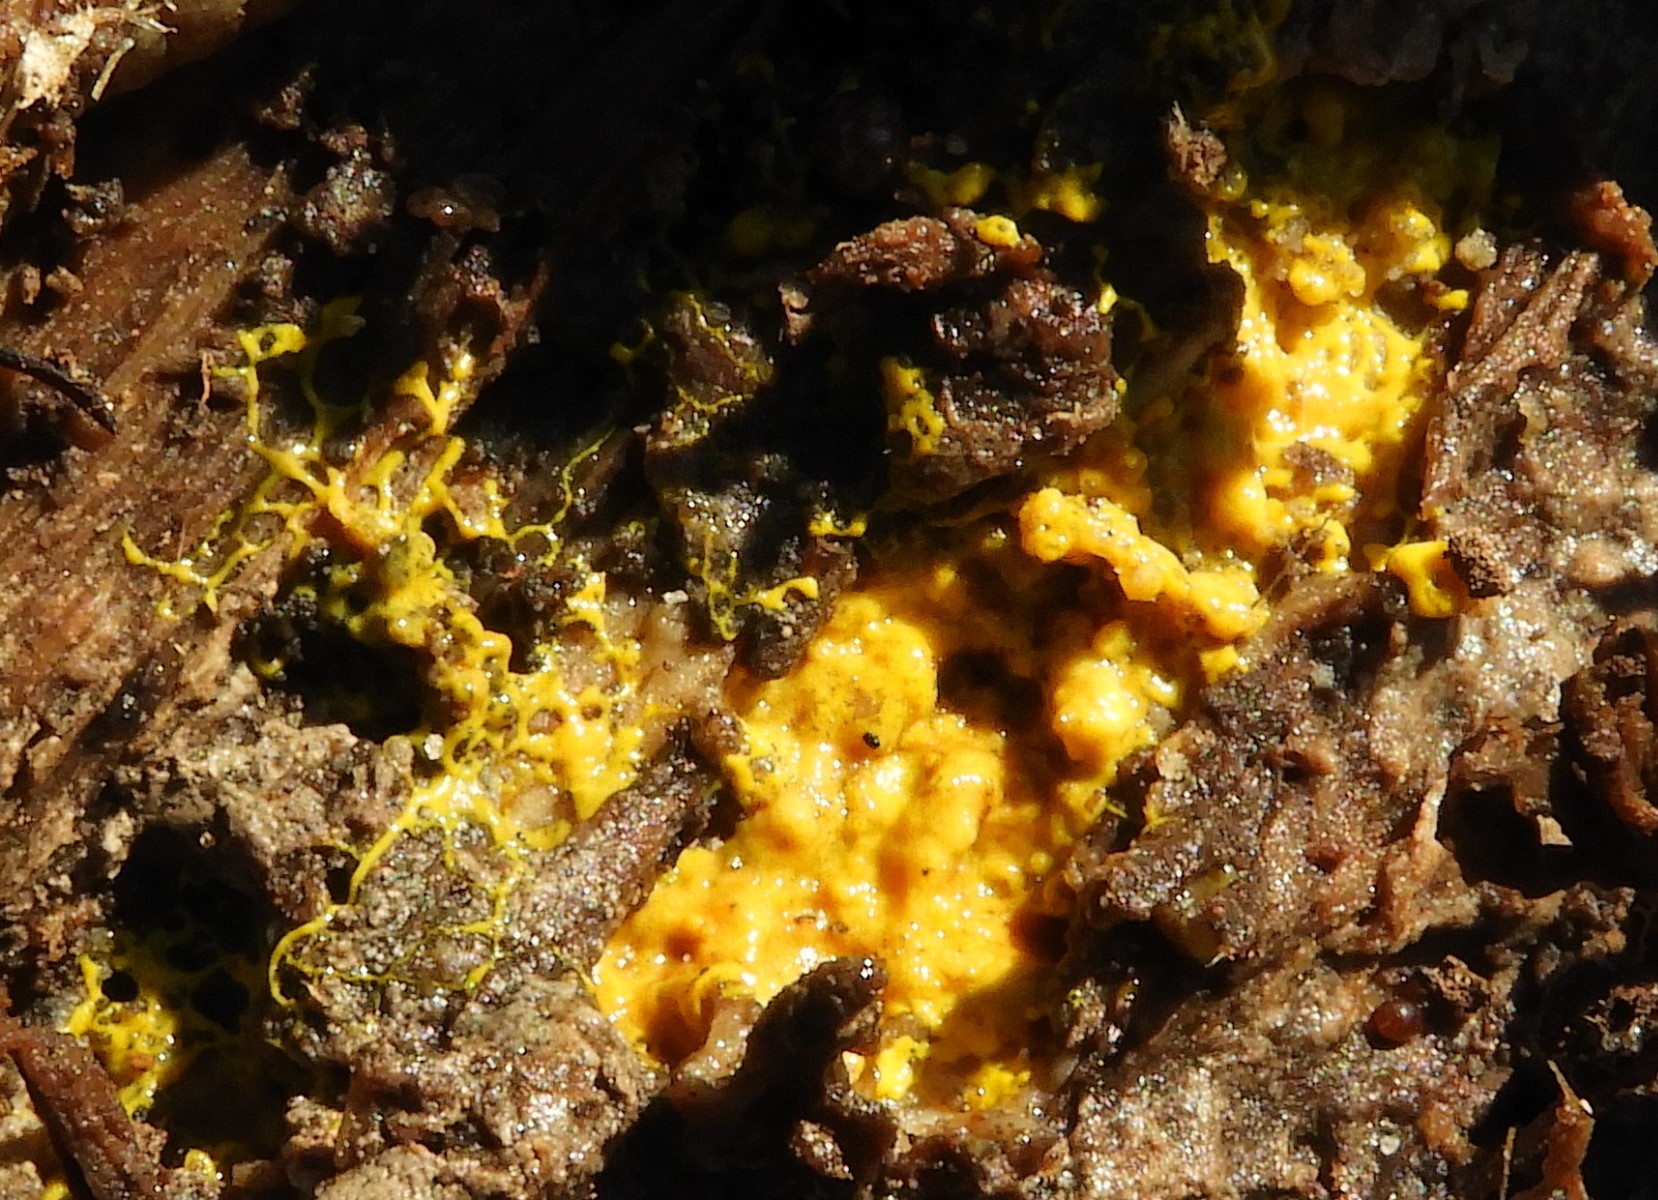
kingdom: Protozoa
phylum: Mycetozoa
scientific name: Mycetozoa
